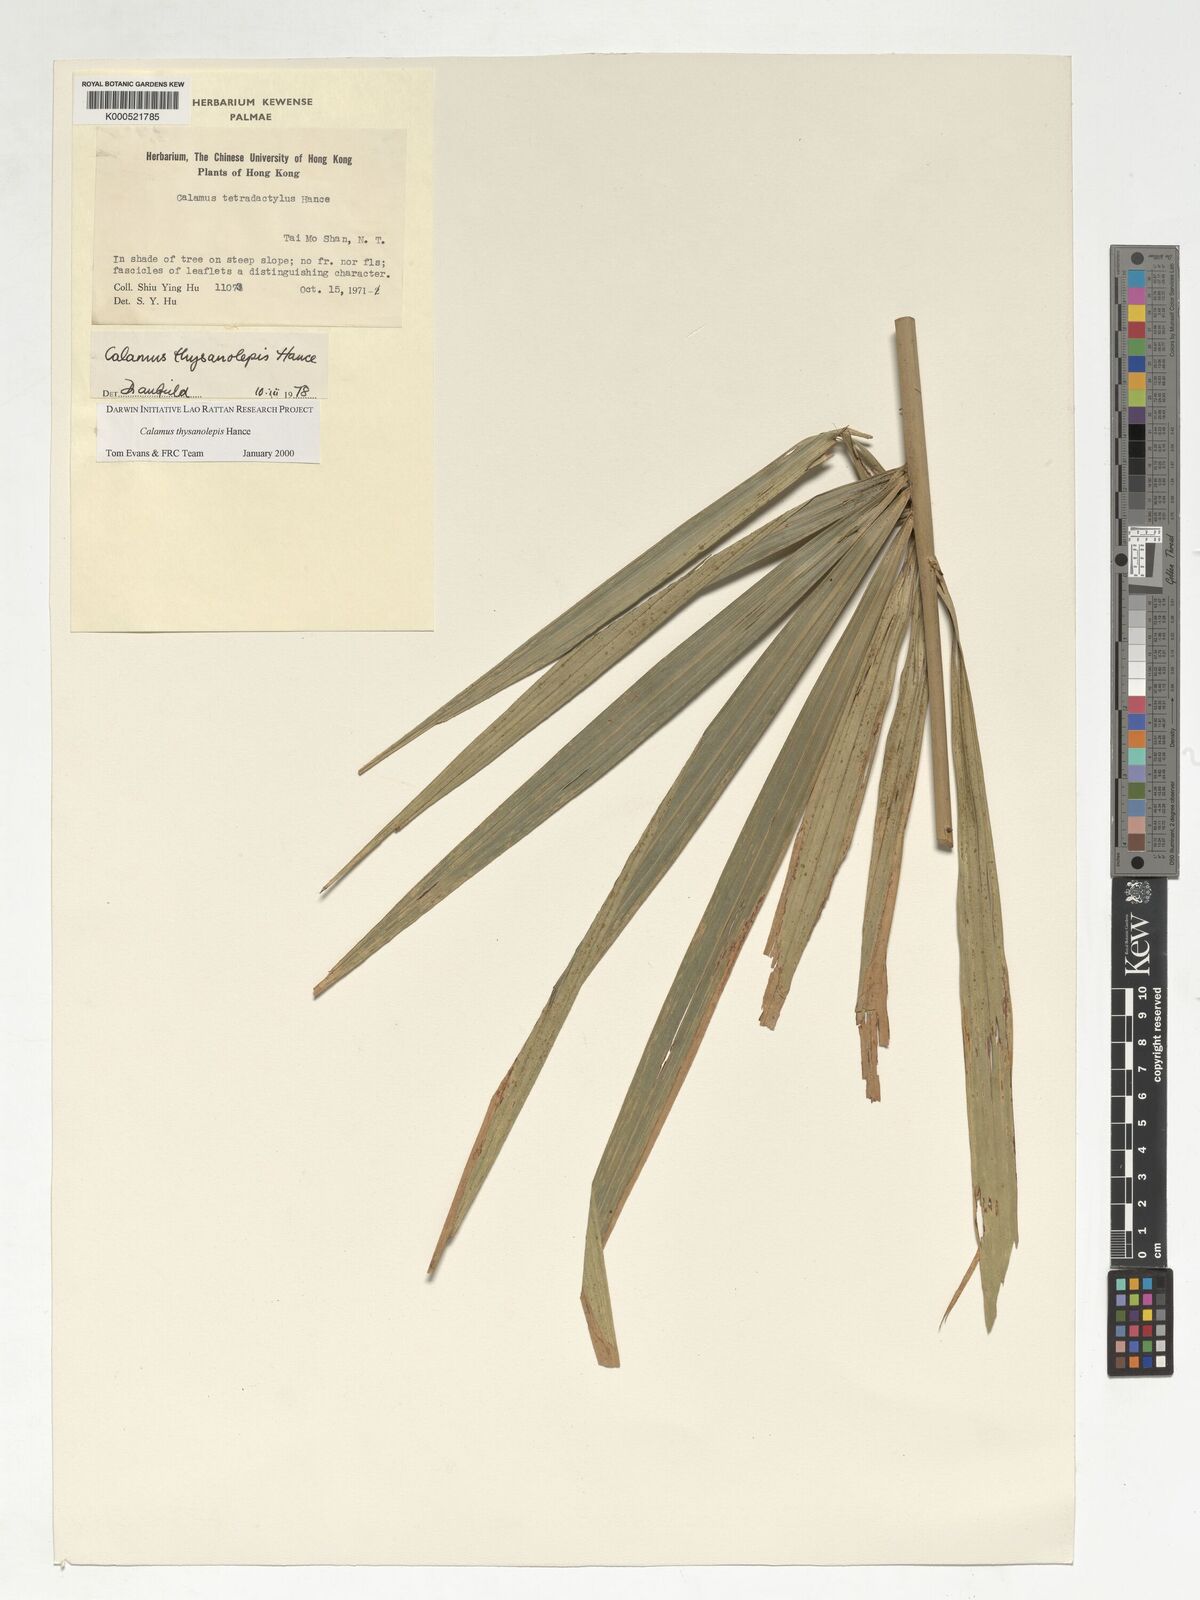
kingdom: Plantae
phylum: Tracheophyta
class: Liliopsida
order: Arecales
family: Arecaceae
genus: Calamus
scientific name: Calamus thysanolepis
